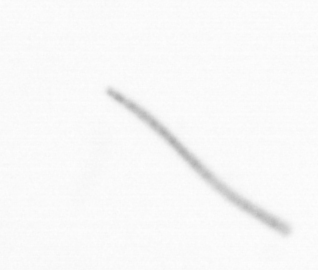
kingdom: Chromista
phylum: Ochrophyta
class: Bacillariophyceae
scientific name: Bacillariophyceae
